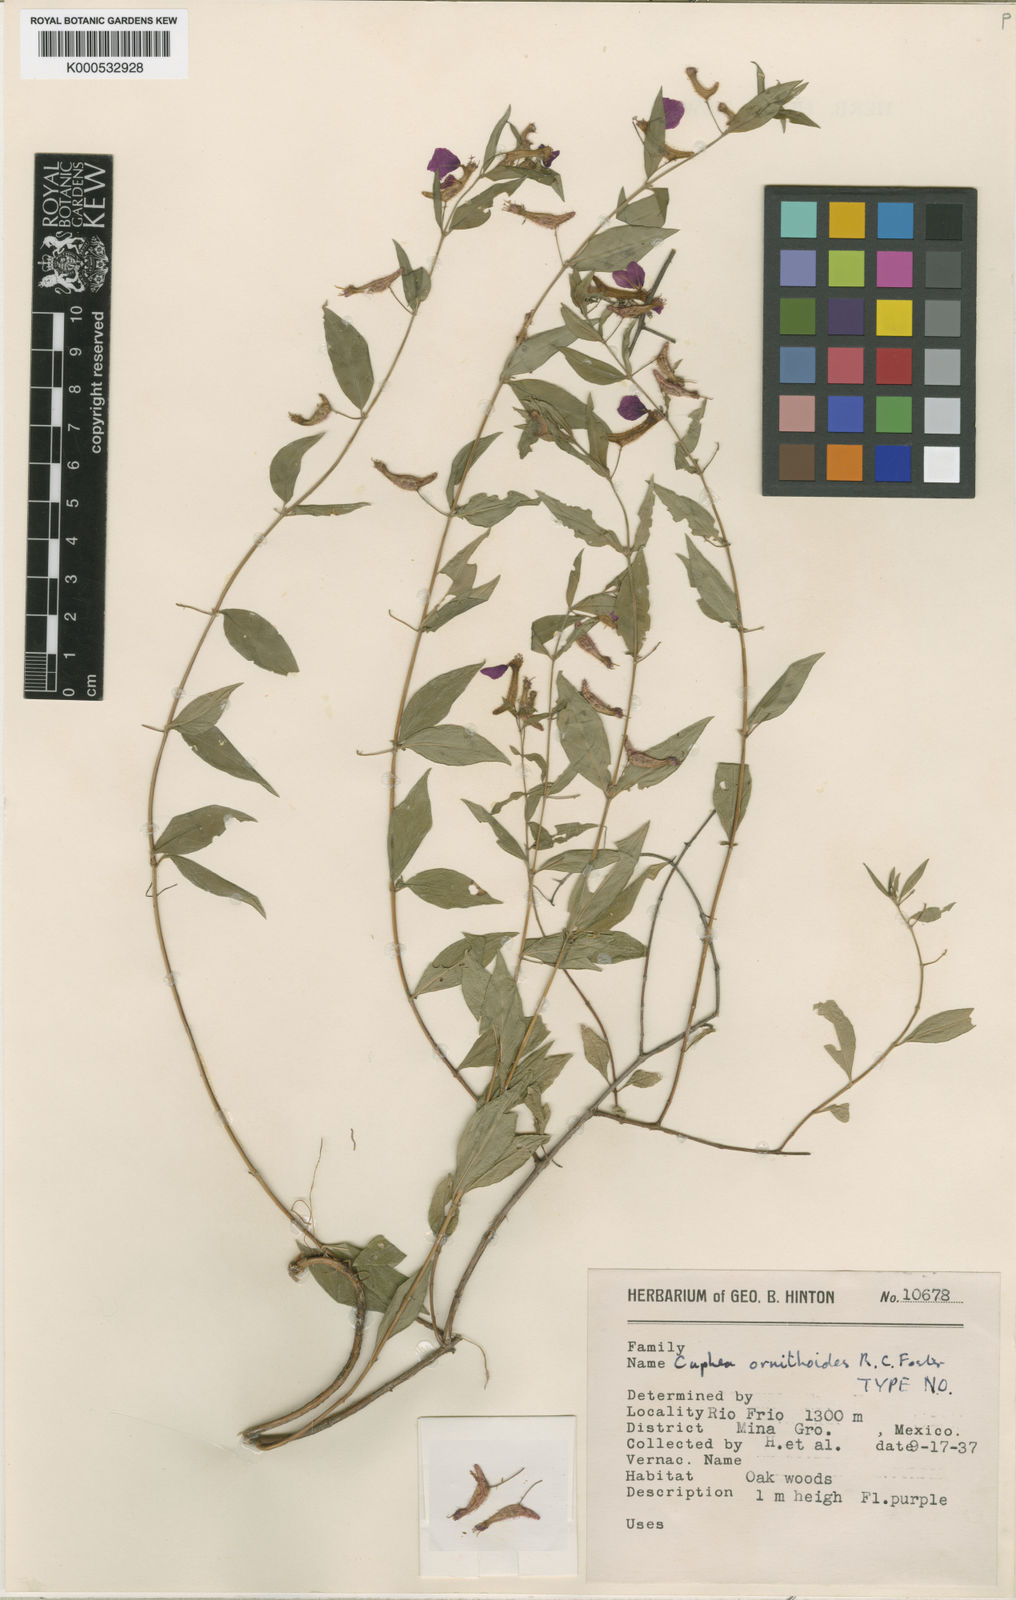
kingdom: Plantae
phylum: Tracheophyta
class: Magnoliopsida
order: Myrtales
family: Lythraceae
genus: Cuphea
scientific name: Cuphea ornithoides
